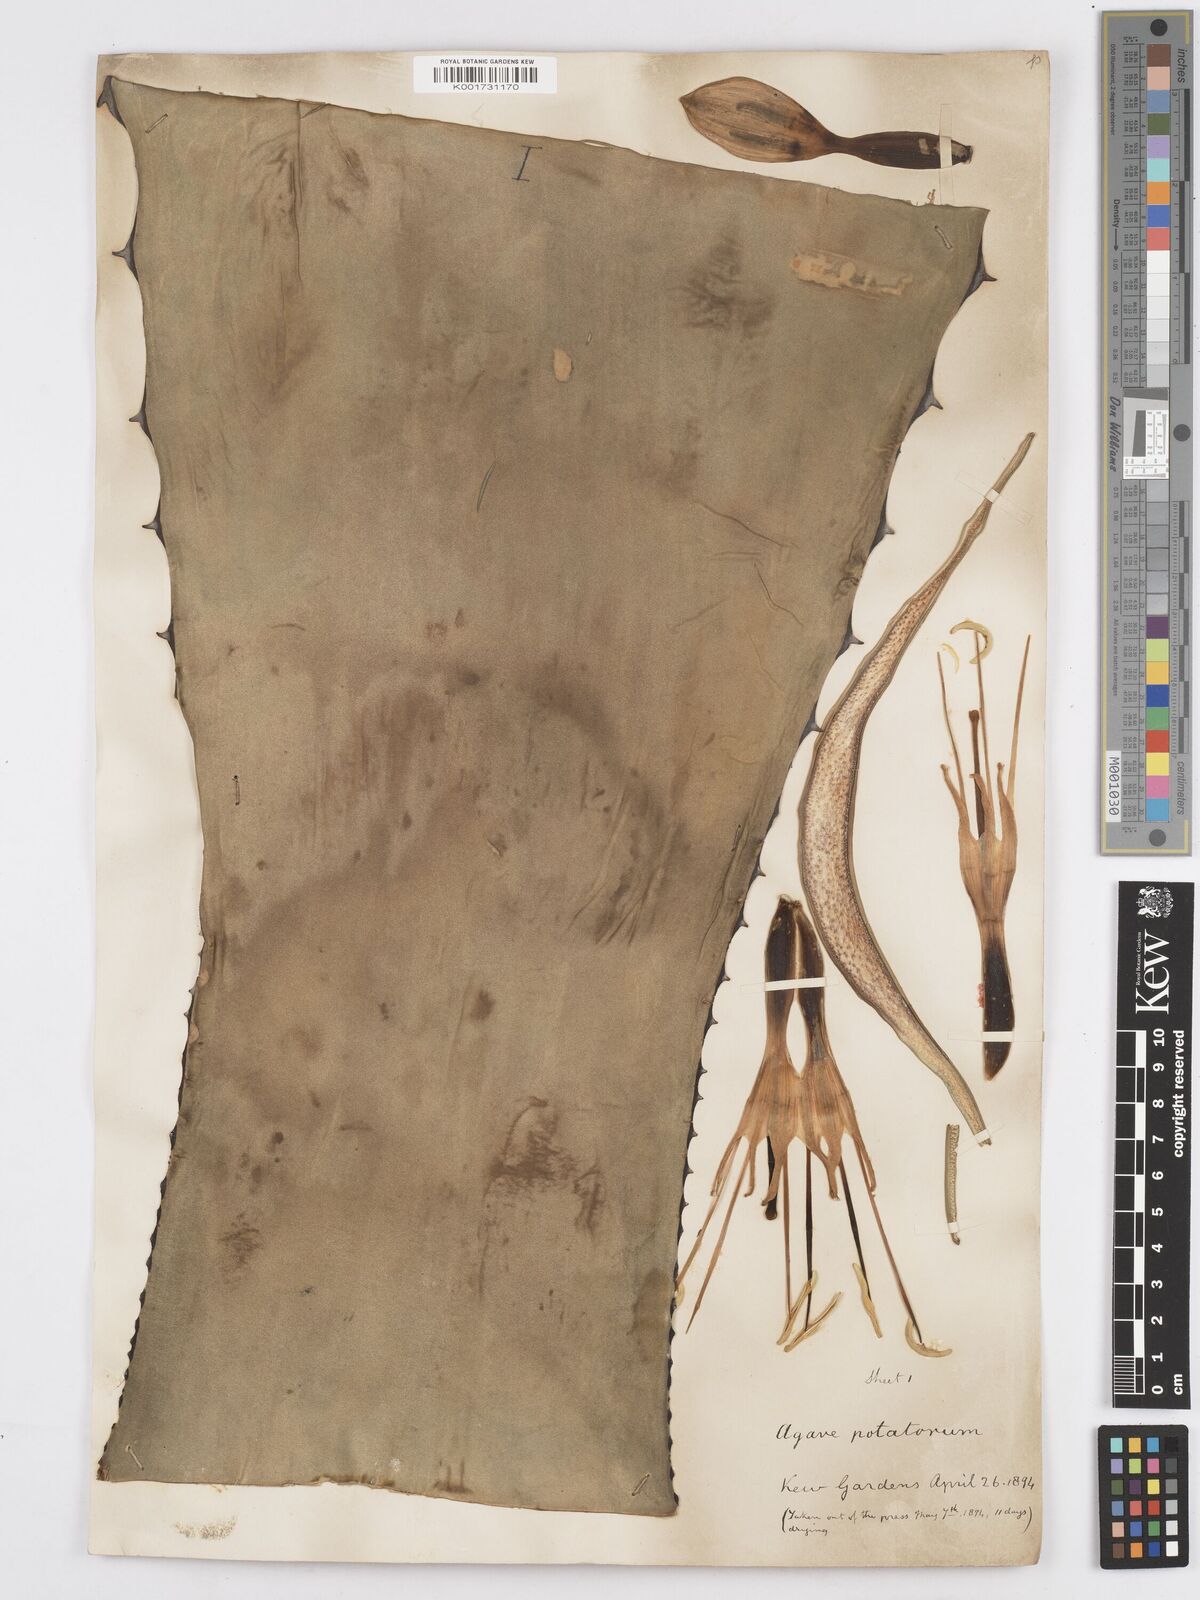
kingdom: Plantae
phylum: Tracheophyta
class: Liliopsida
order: Asparagales
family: Asparagaceae
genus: Agave
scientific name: Agave potatorum
